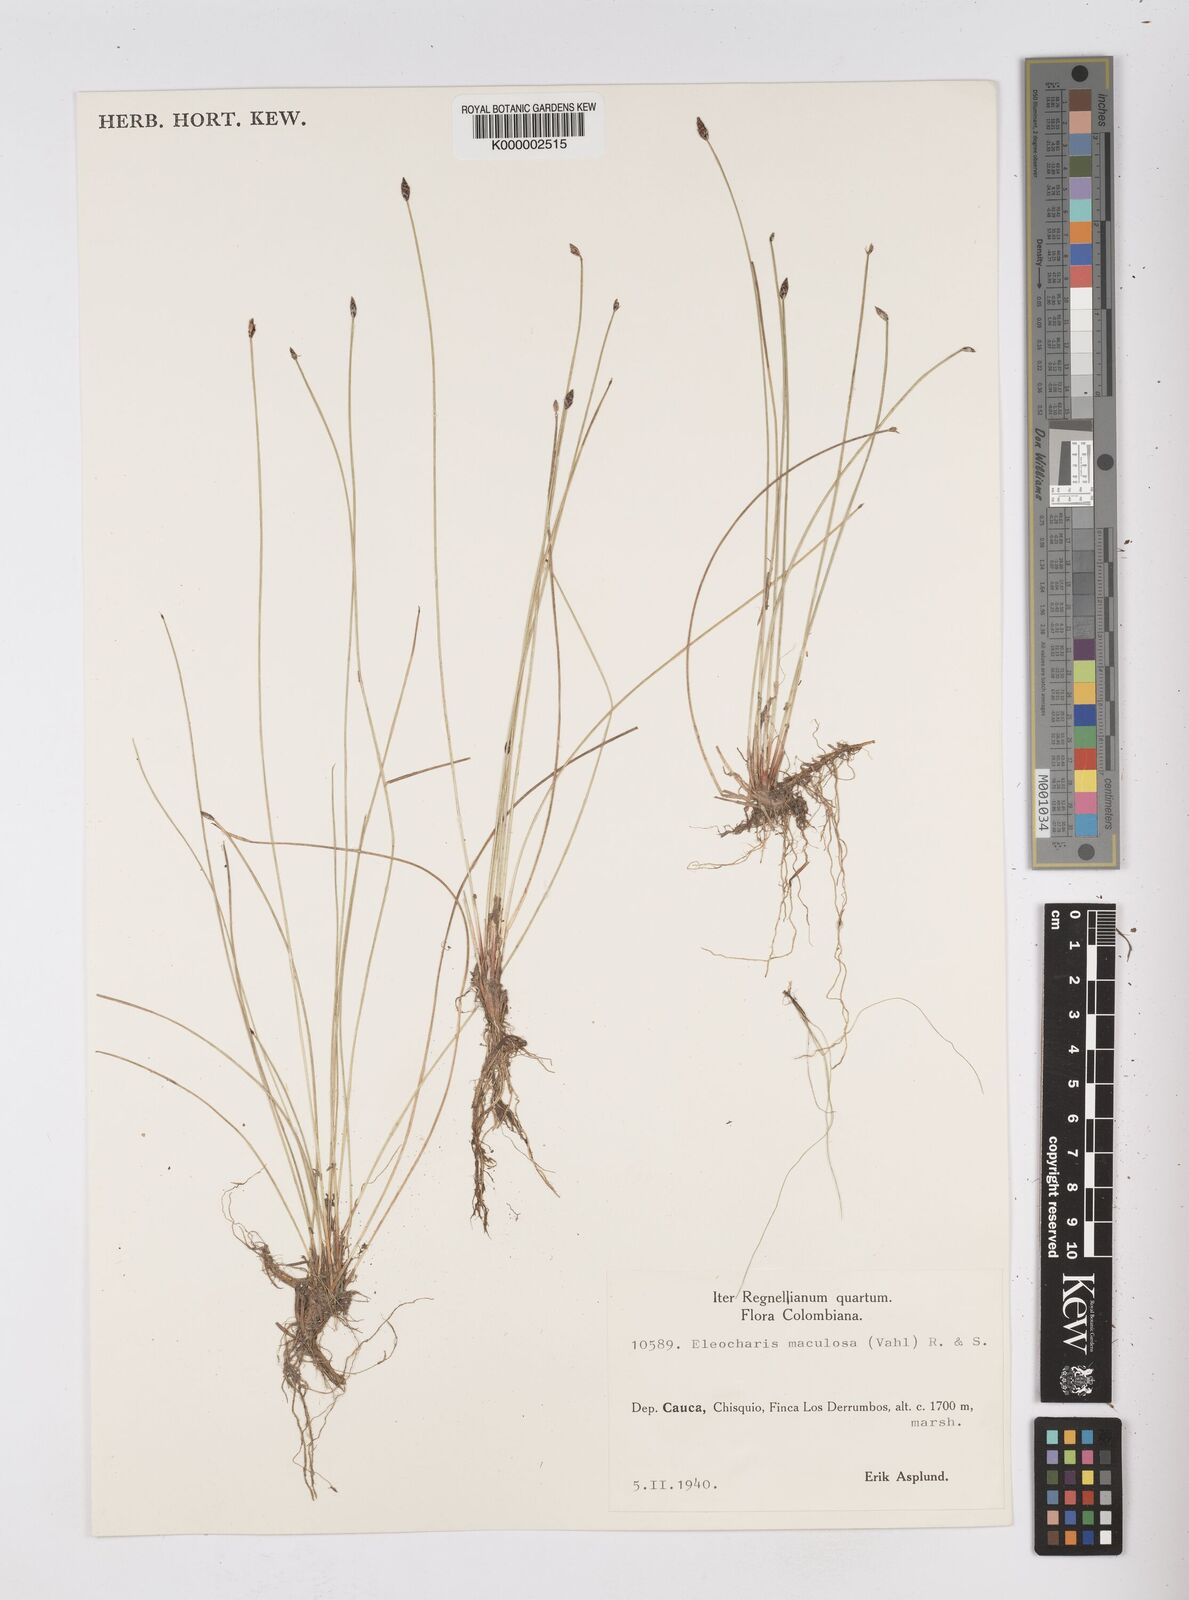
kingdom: Plantae
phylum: Tracheophyta
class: Liliopsida
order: Poales
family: Cyperaceae
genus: Eleocharis
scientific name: Eleocharis maculosa
